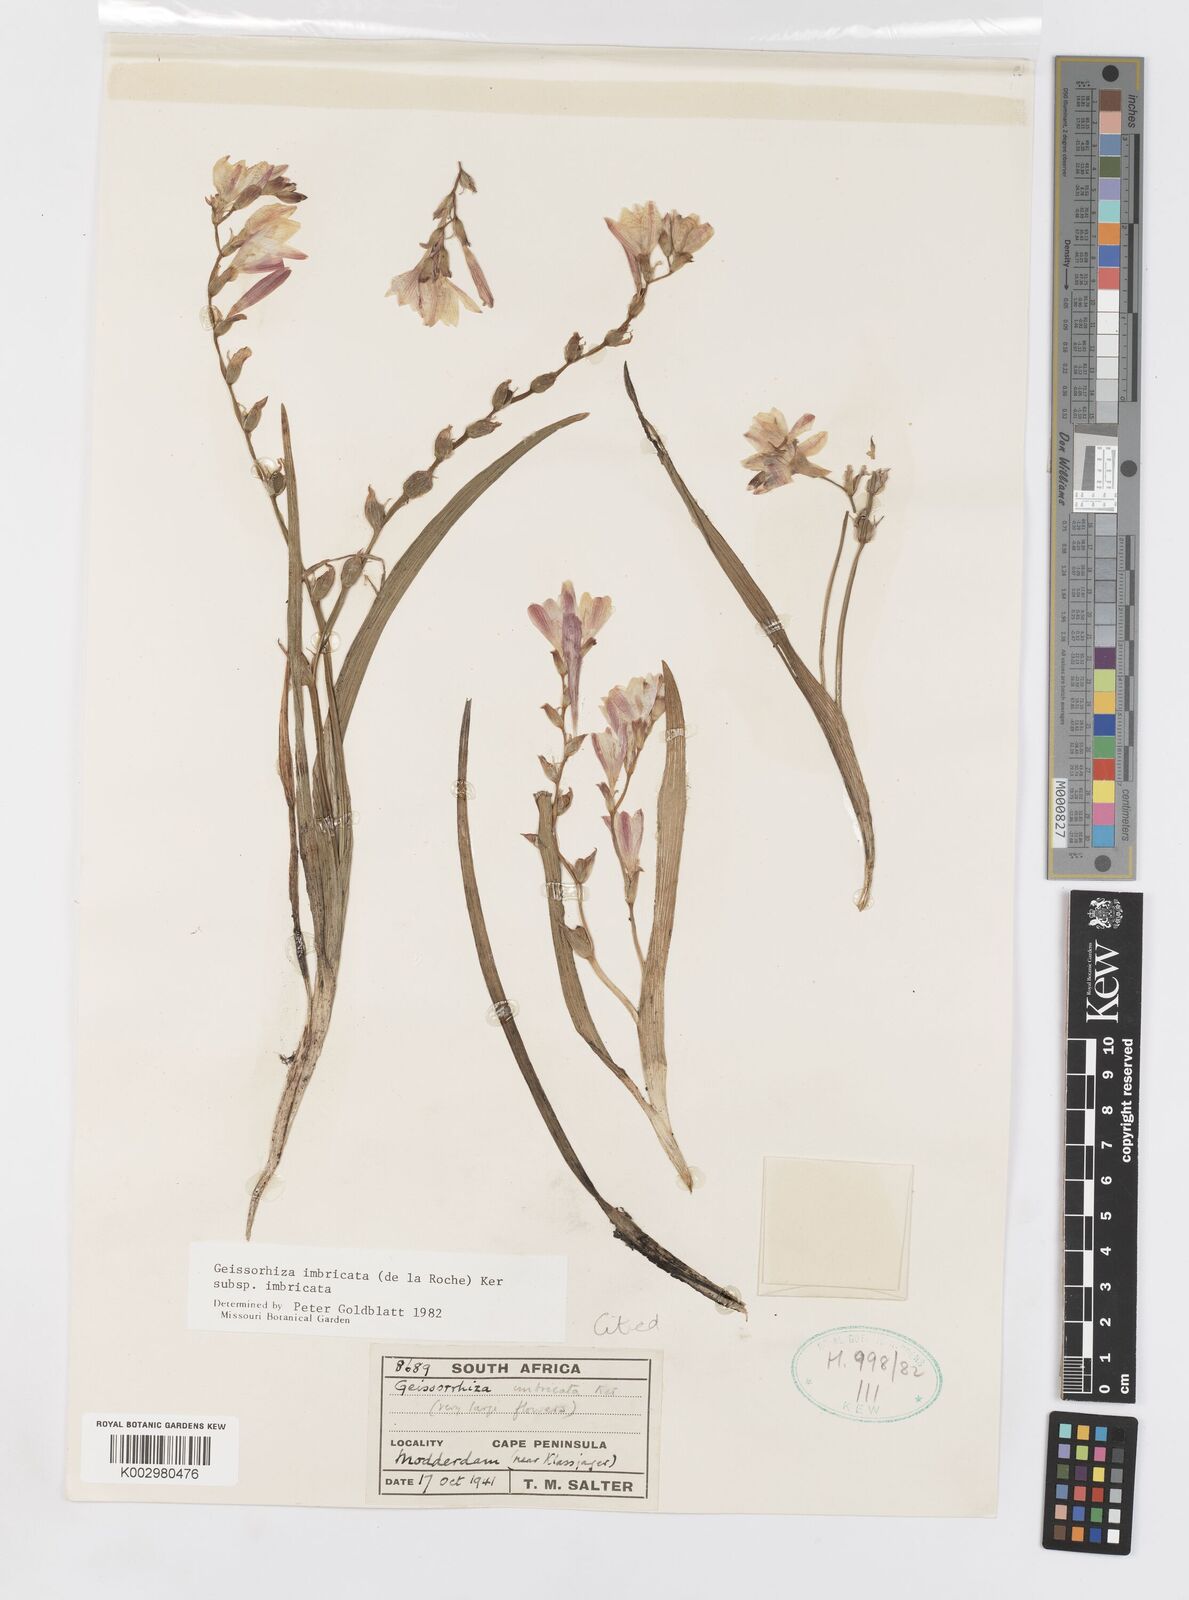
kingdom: Plantae
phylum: Tracheophyta
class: Liliopsida
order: Asparagales
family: Iridaceae
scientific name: Iridaceae
